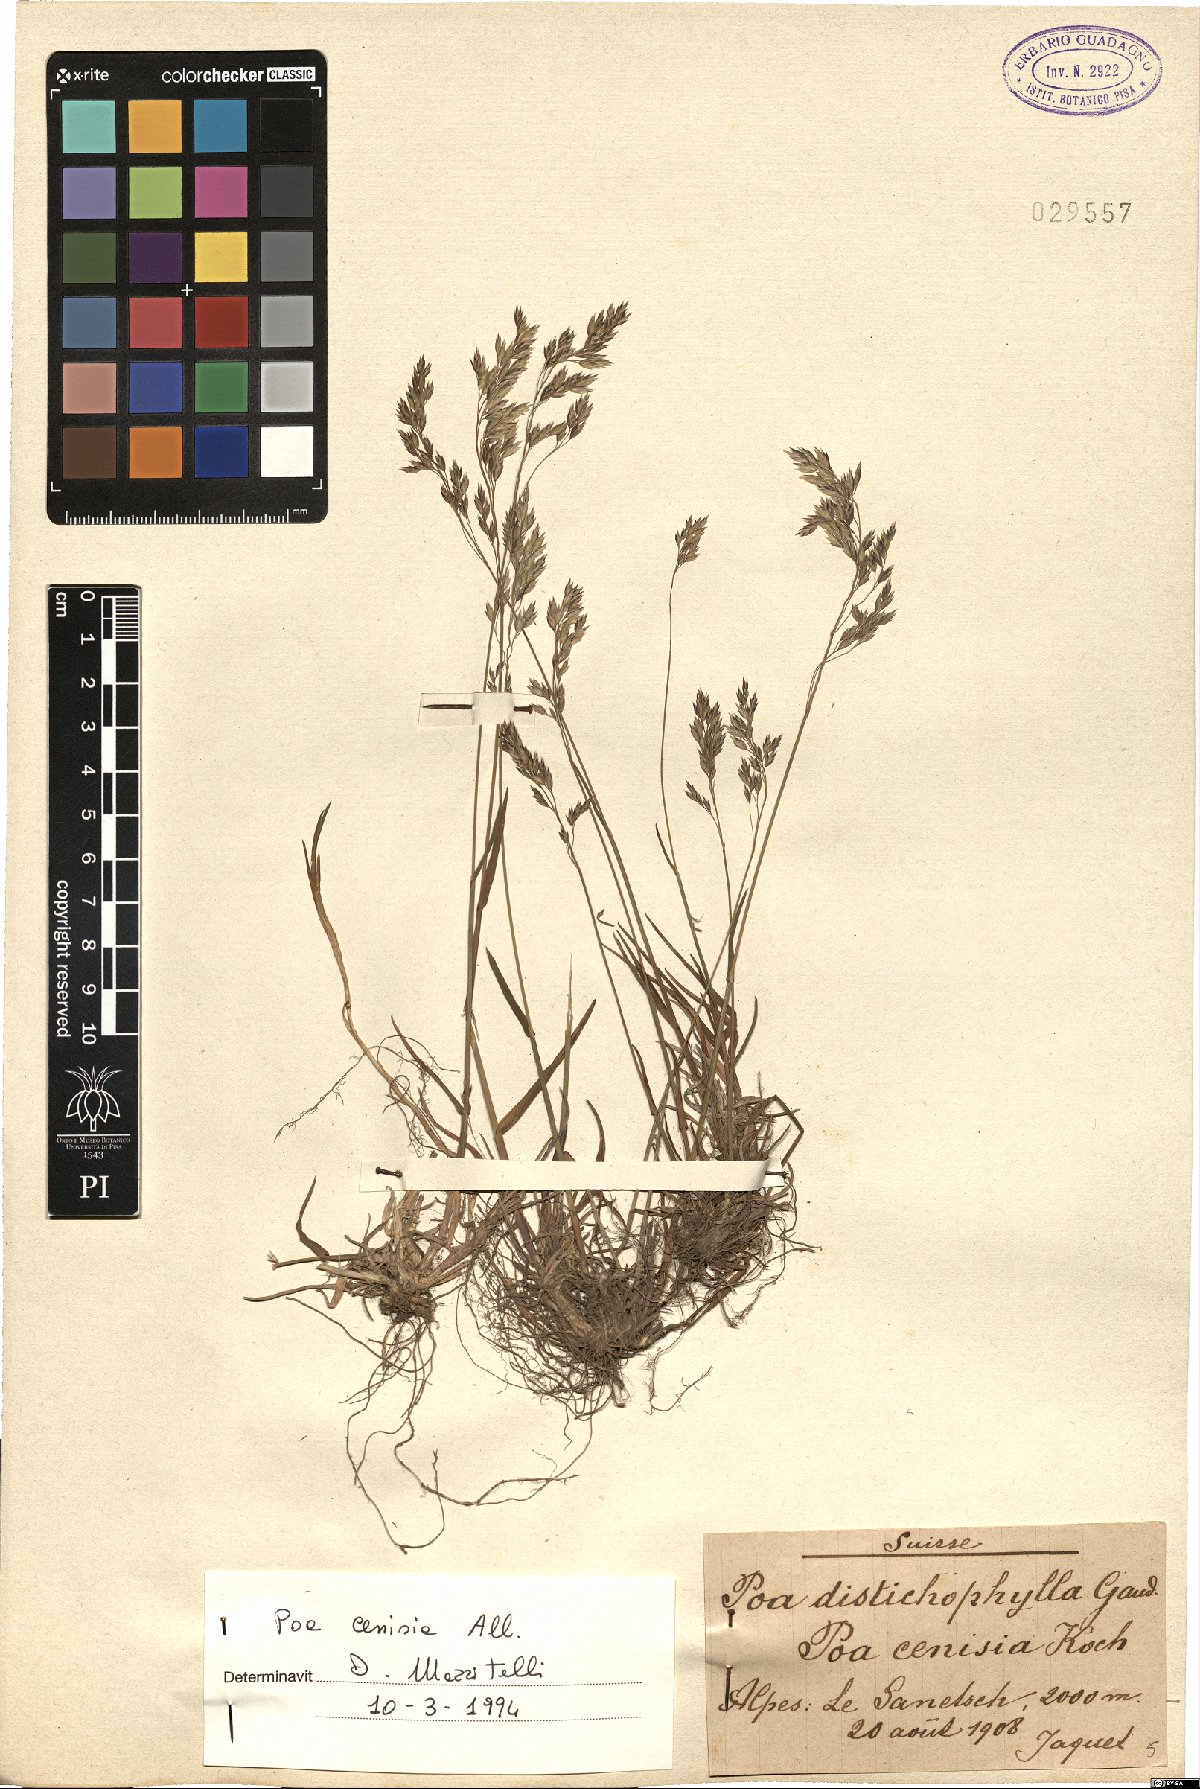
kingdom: Plantae
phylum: Tracheophyta
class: Liliopsida
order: Poales
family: Poaceae
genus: Poa
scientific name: Poa cenisia
